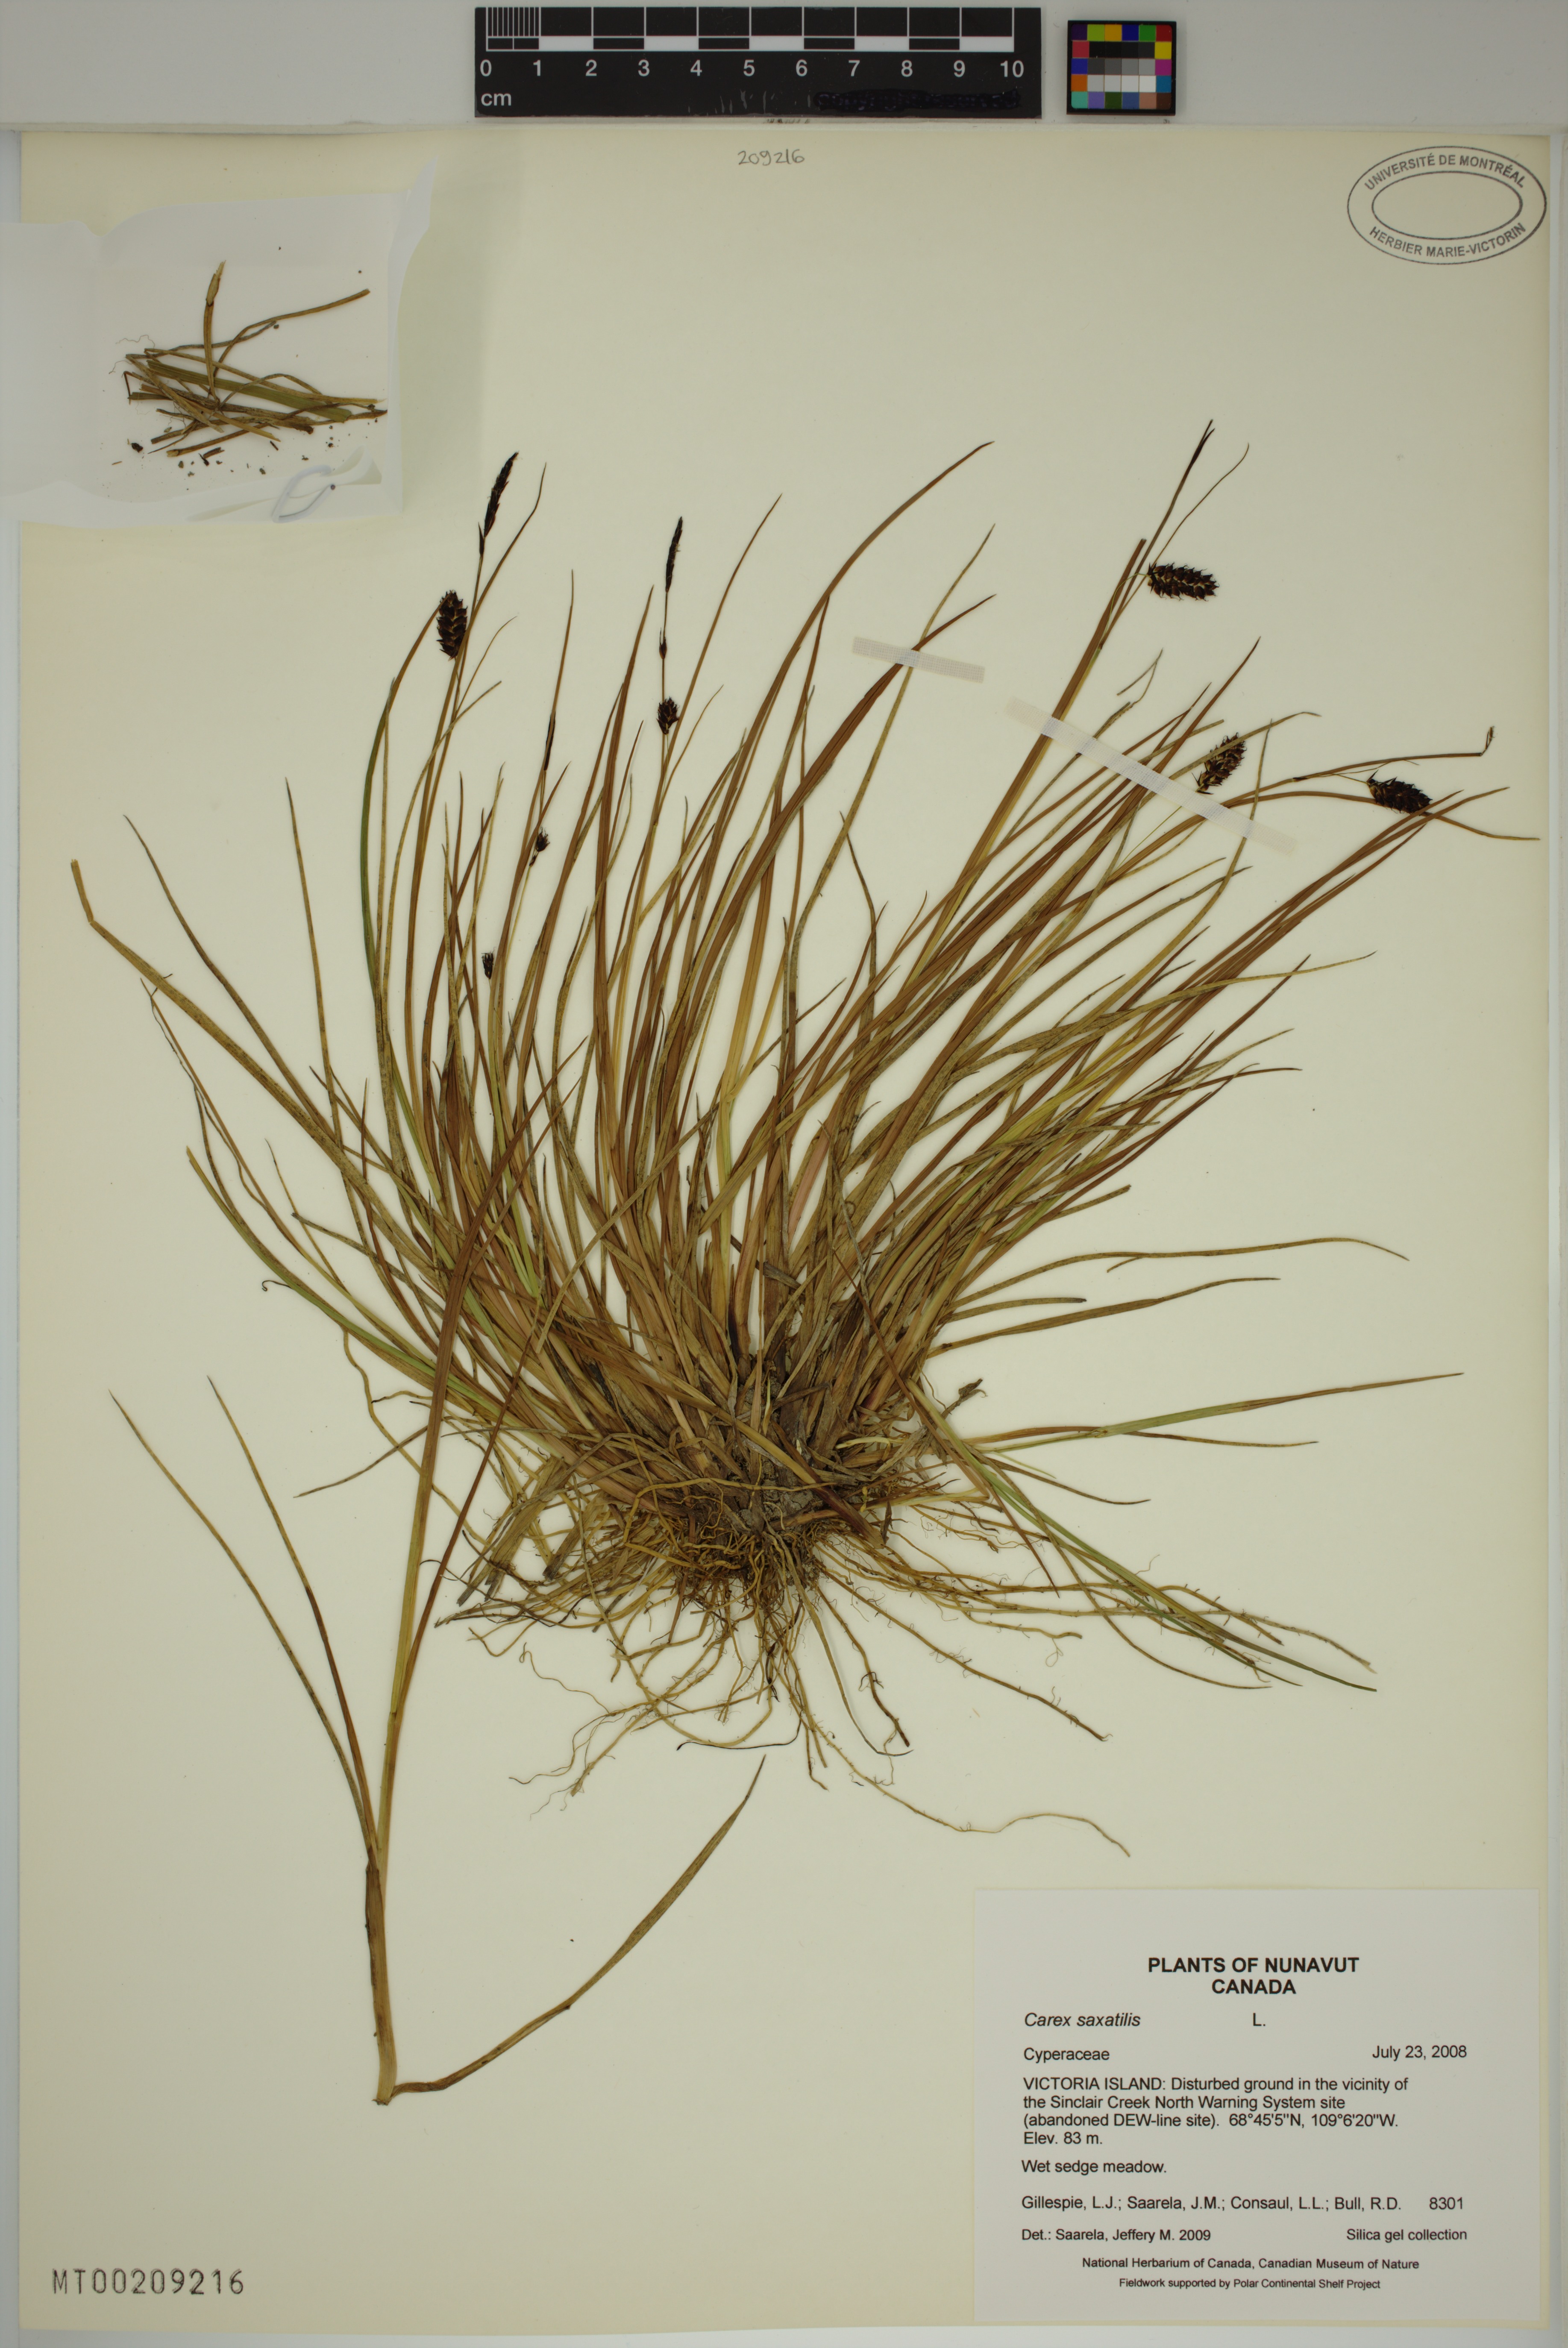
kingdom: Plantae
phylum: Tracheophyta
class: Liliopsida
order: Poales
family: Cyperaceae
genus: Carex
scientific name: Carex saxatilis
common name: Russet sedge
